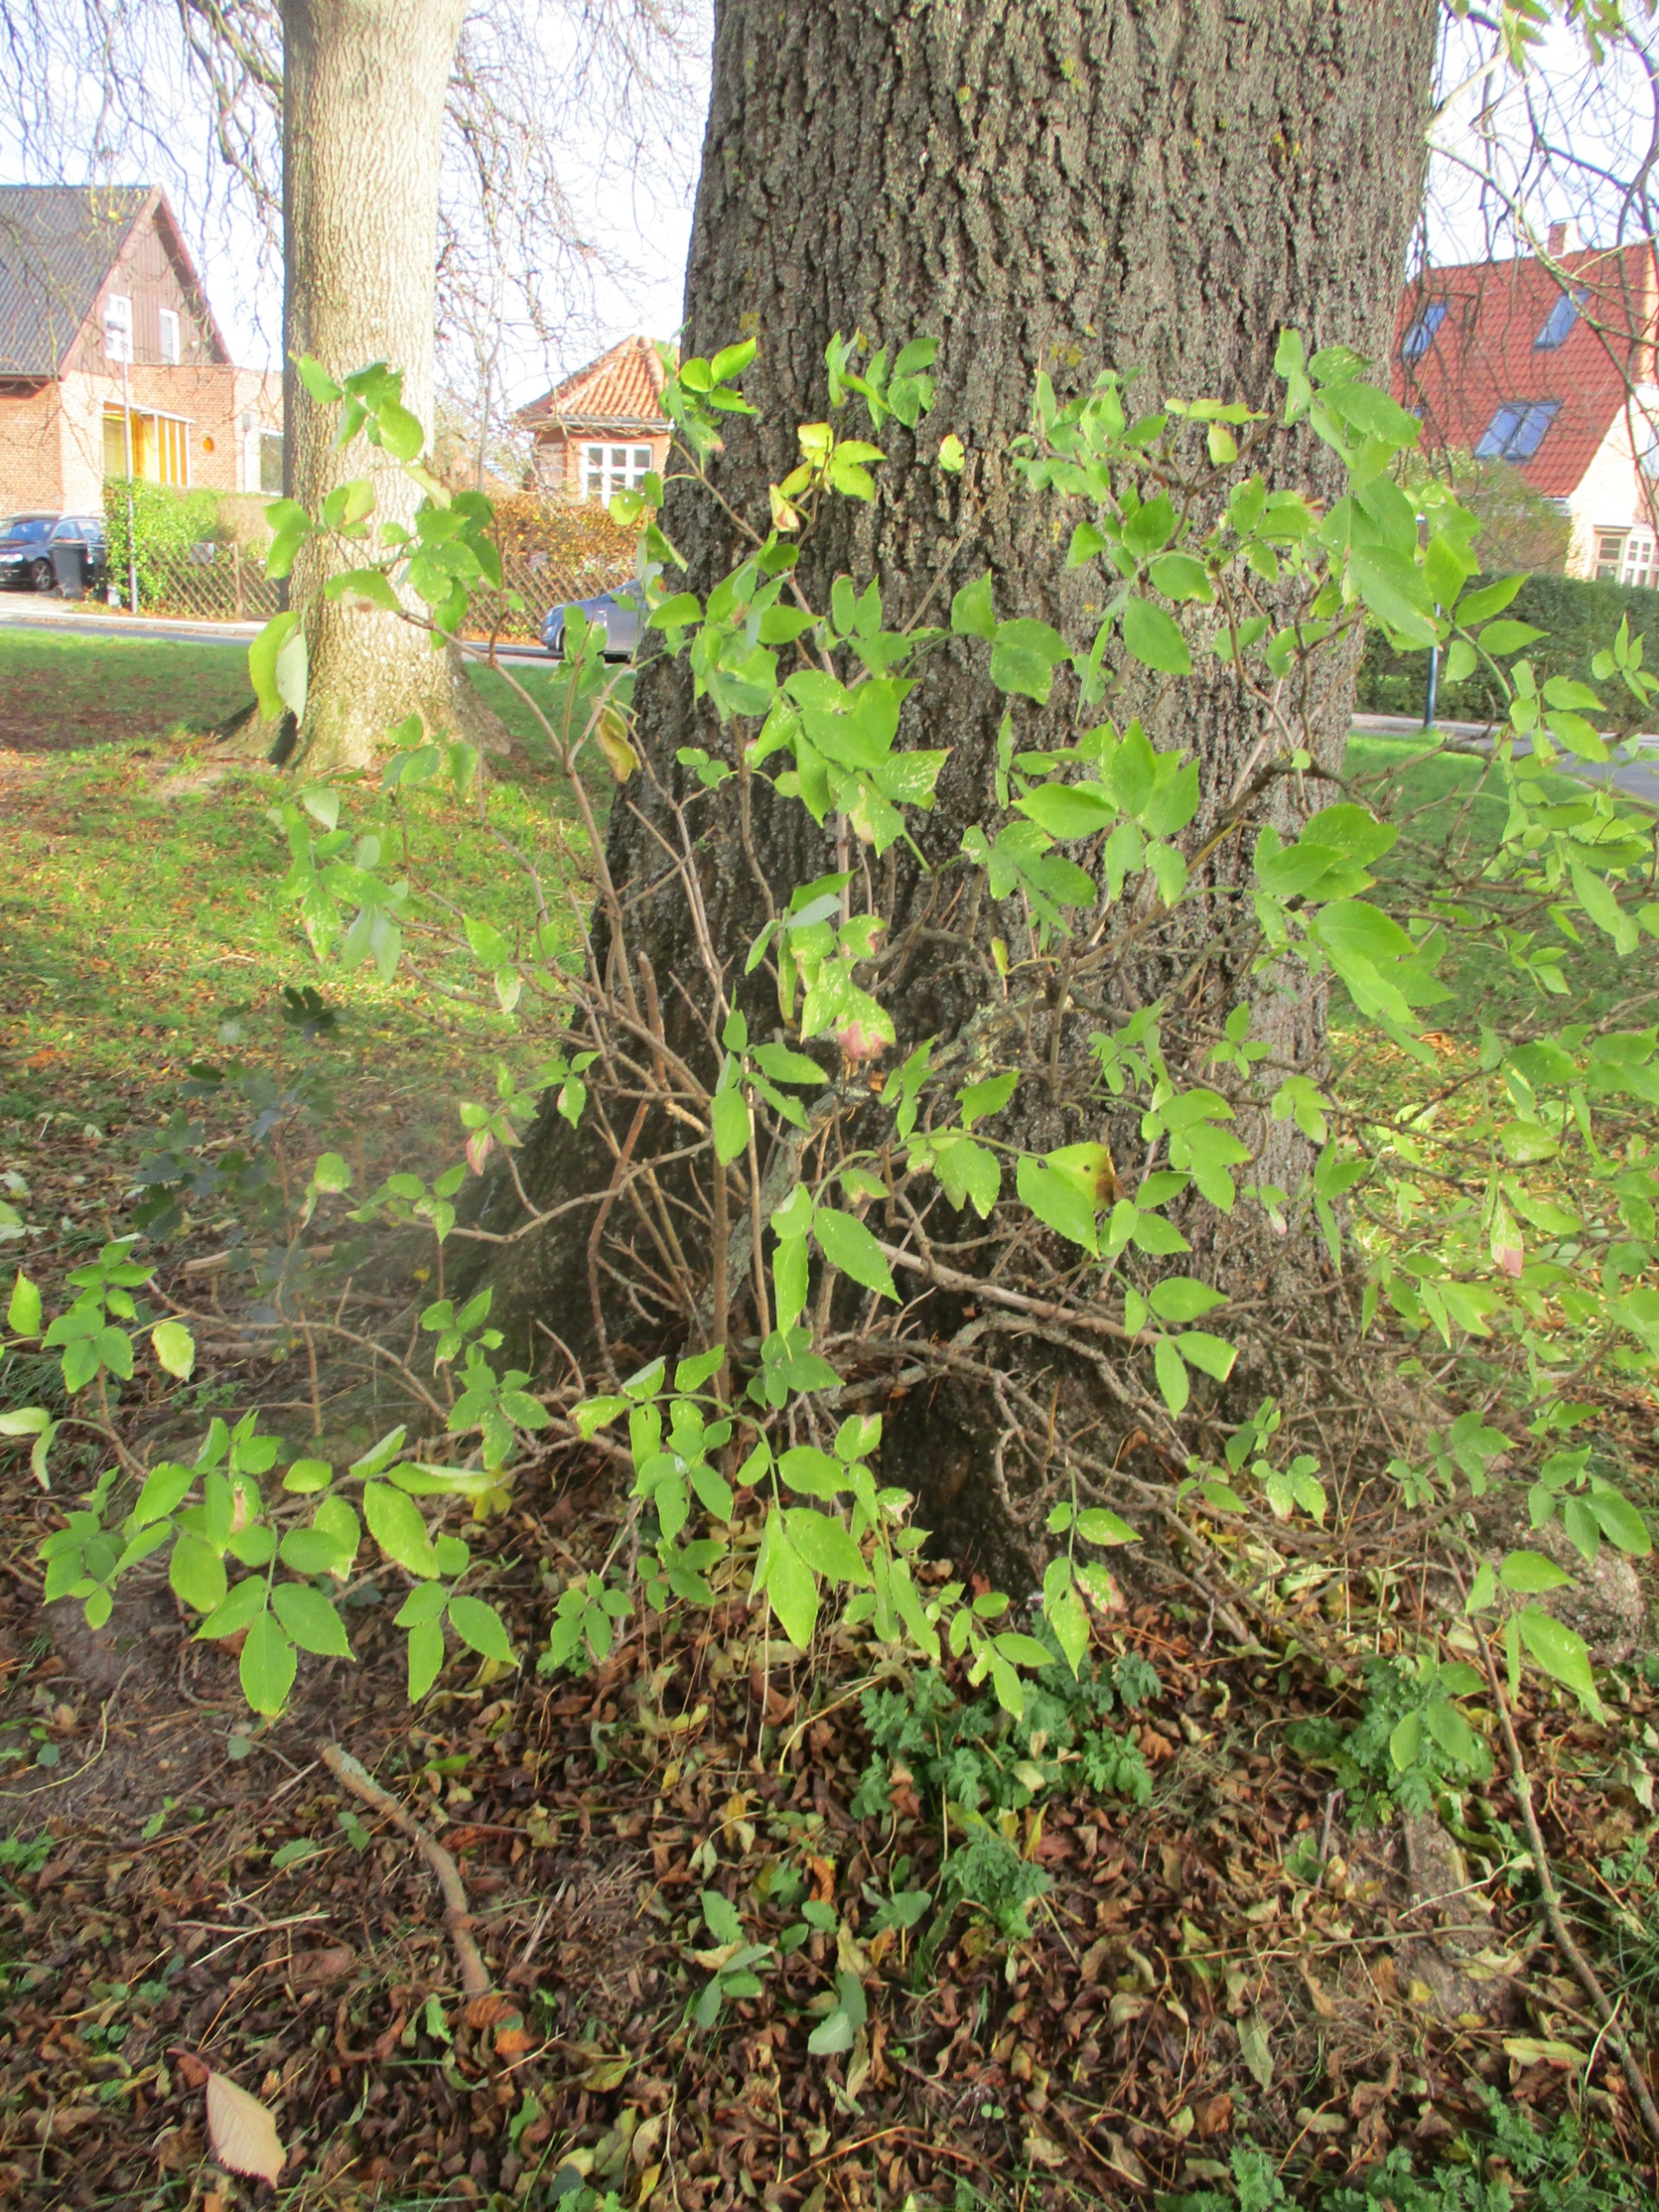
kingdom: Plantae
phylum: Tracheophyta
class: Magnoliopsida
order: Dipsacales
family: Viburnaceae
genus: Sambucus
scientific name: Sambucus nigra
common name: Almindelig hyld
